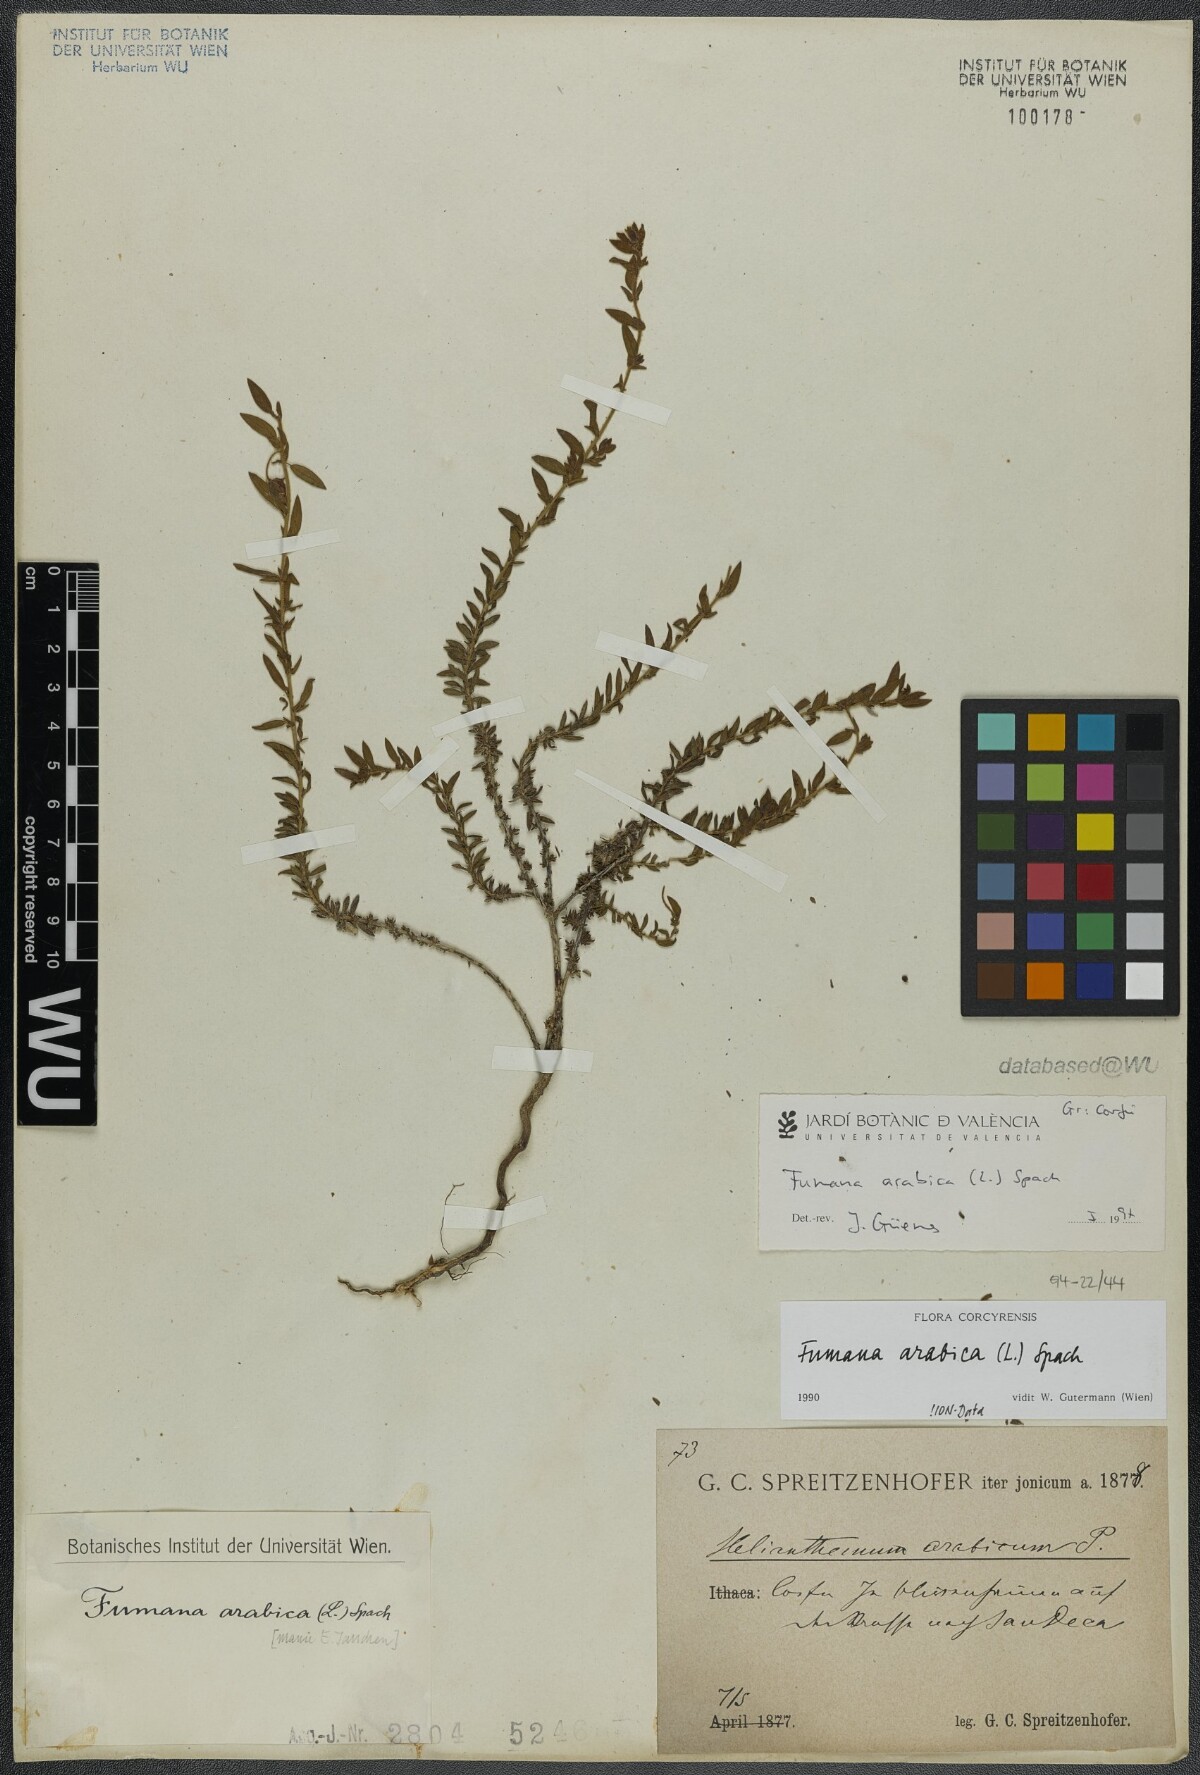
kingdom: Plantae
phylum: Tracheophyta
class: Magnoliopsida
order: Malvales
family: Cistaceae
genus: Fumana
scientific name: Fumana arabica
